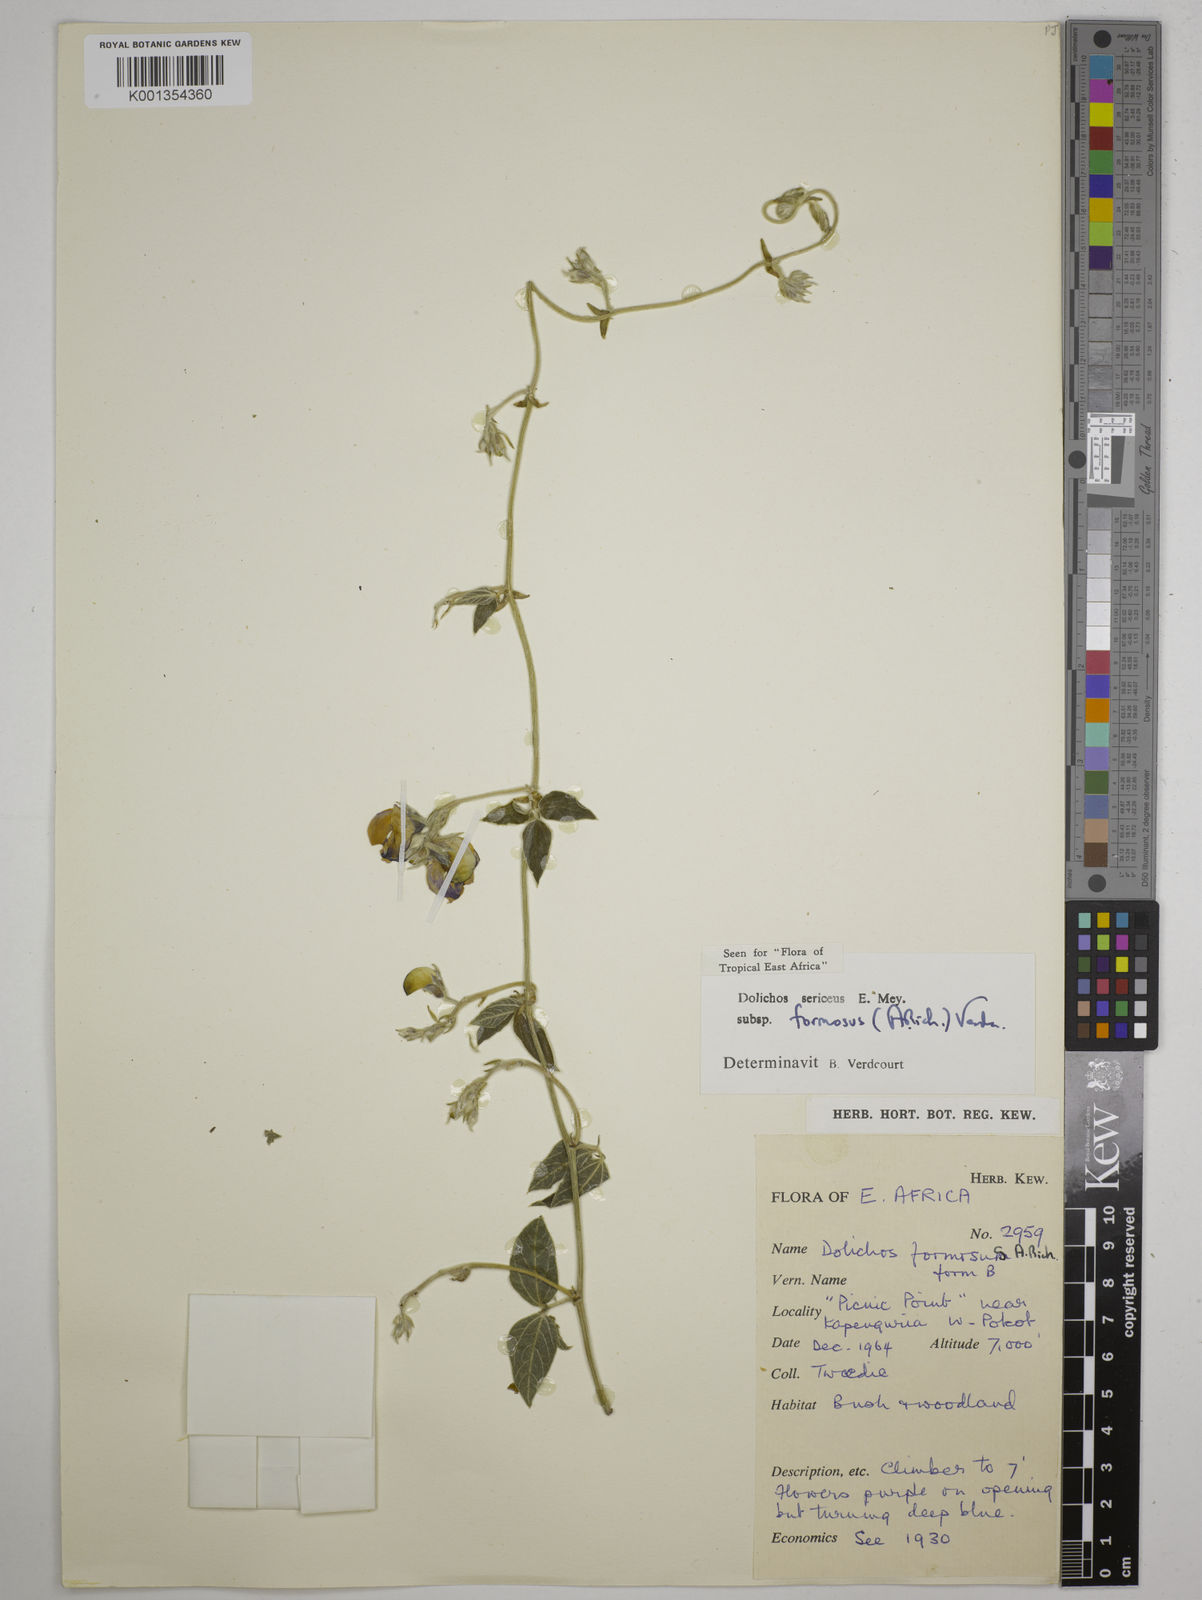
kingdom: Plantae
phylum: Tracheophyta
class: Magnoliopsida
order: Fabales
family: Fabaceae
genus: Dolichos
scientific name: Dolichos
